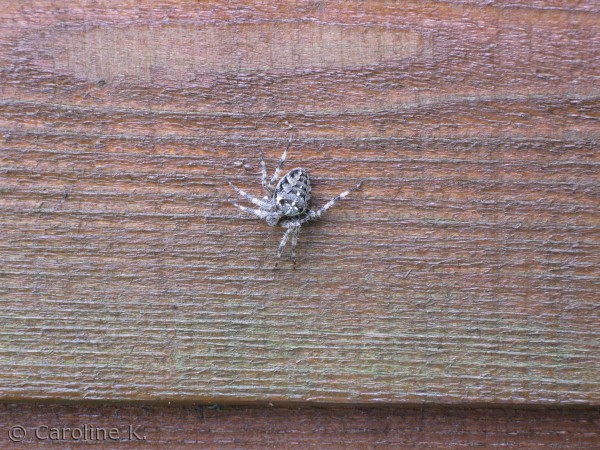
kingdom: Animalia
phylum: Arthropoda
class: Arachnida
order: Araneae
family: Araneidae
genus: Araneus
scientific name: Araneus diadematus
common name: Korsedderkop
